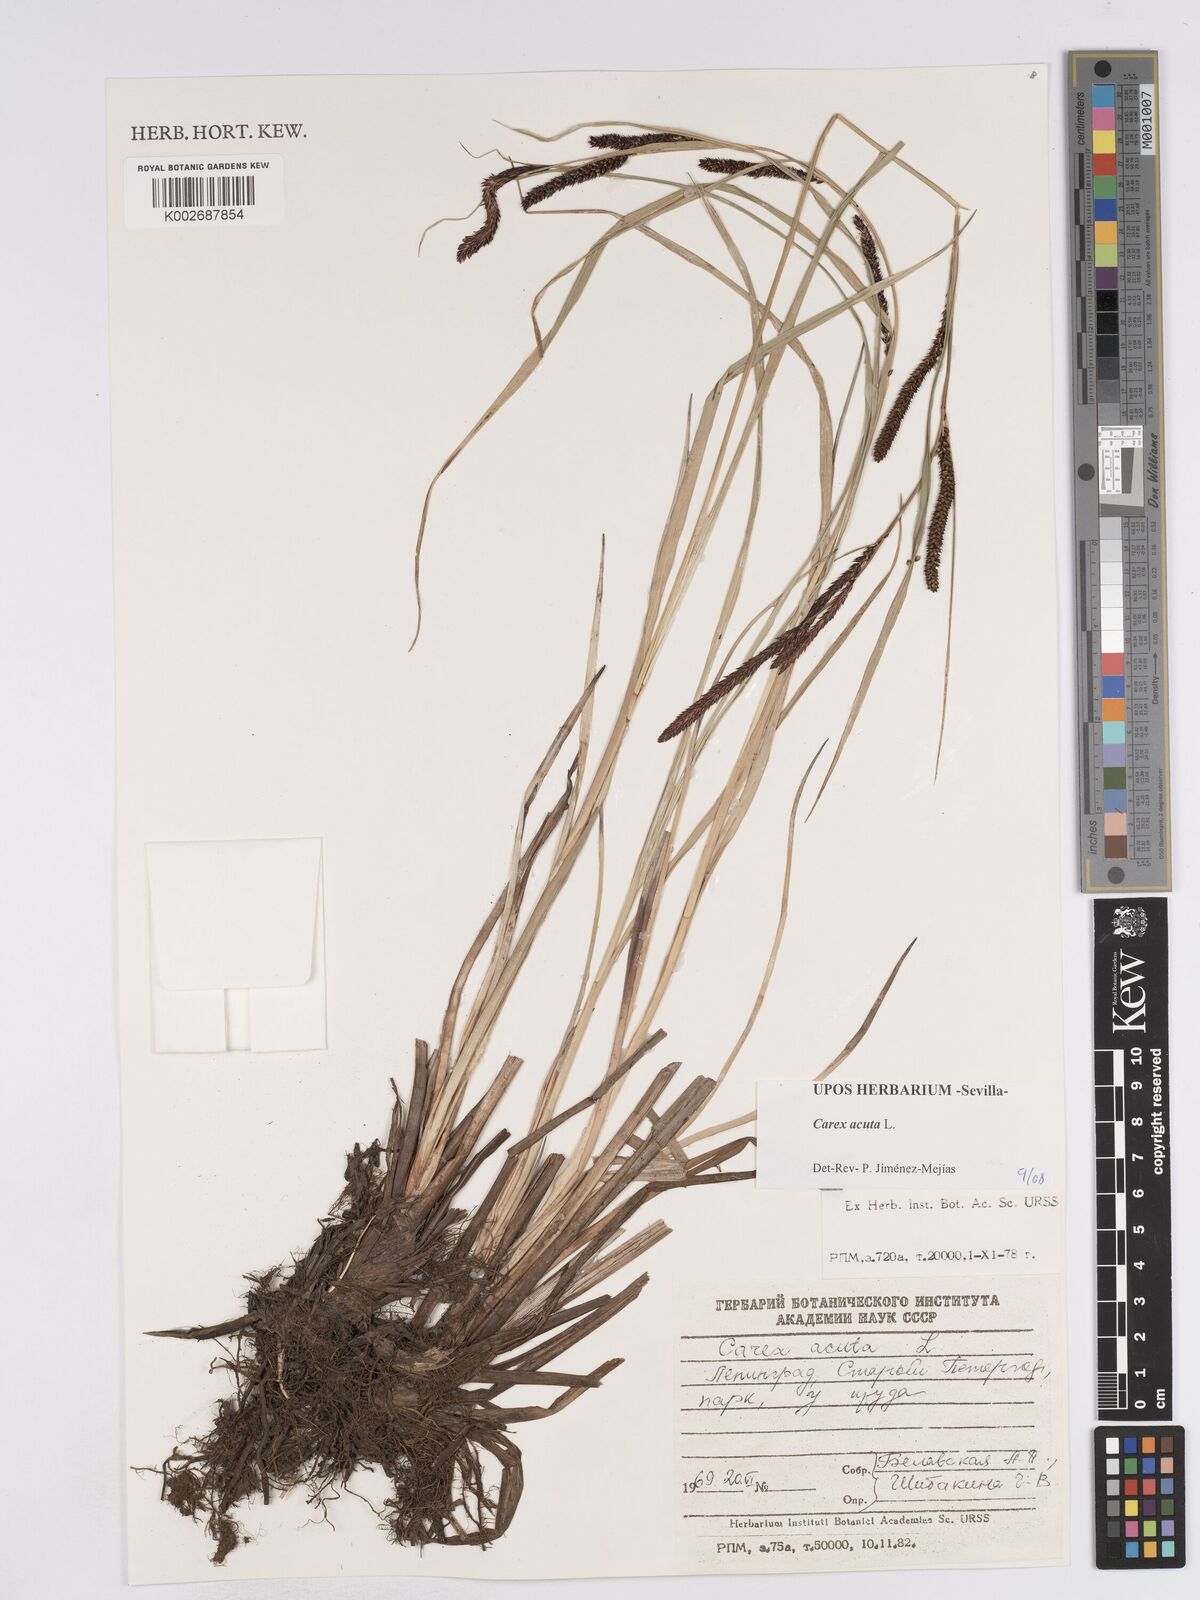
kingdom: Plantae
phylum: Tracheophyta
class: Liliopsida
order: Poales
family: Cyperaceae
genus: Carex
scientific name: Carex acuta
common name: Slender tufted-sedge
